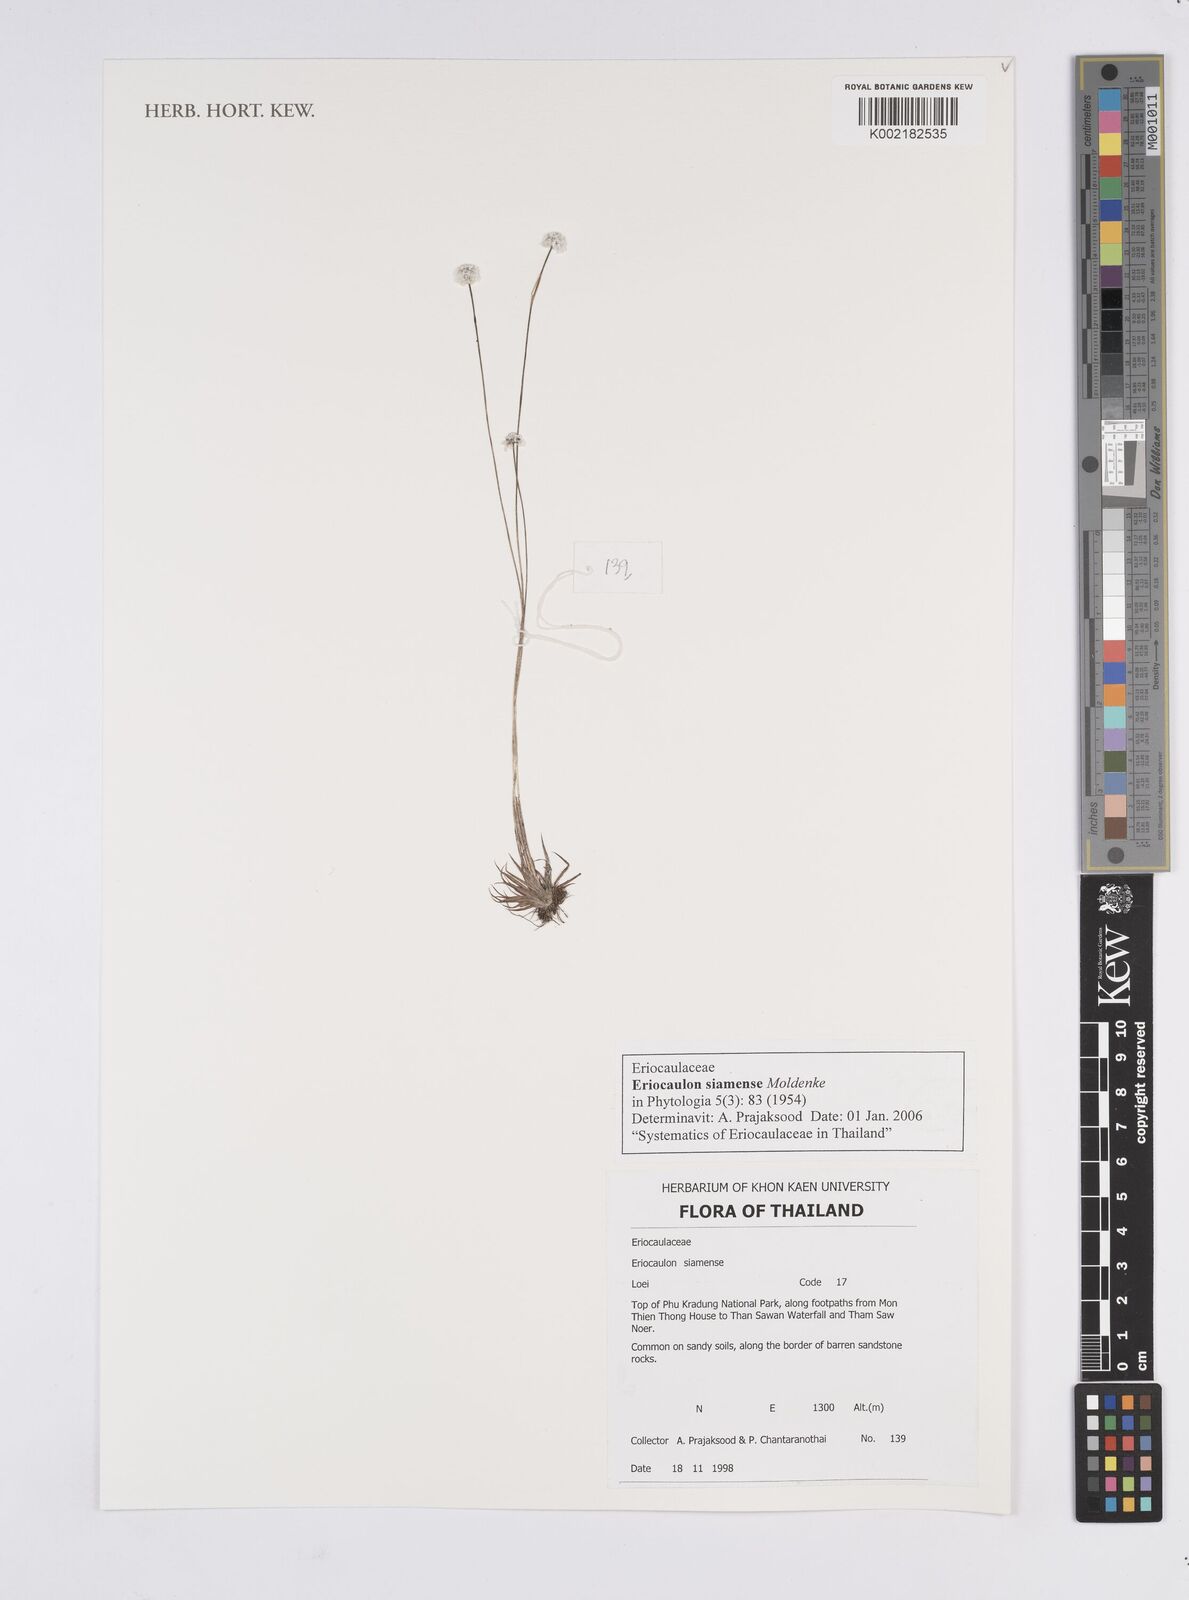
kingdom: Plantae
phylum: Tracheophyta
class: Liliopsida
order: Poales
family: Eriocaulaceae
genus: Eriocaulon
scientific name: Eriocaulon siamense
